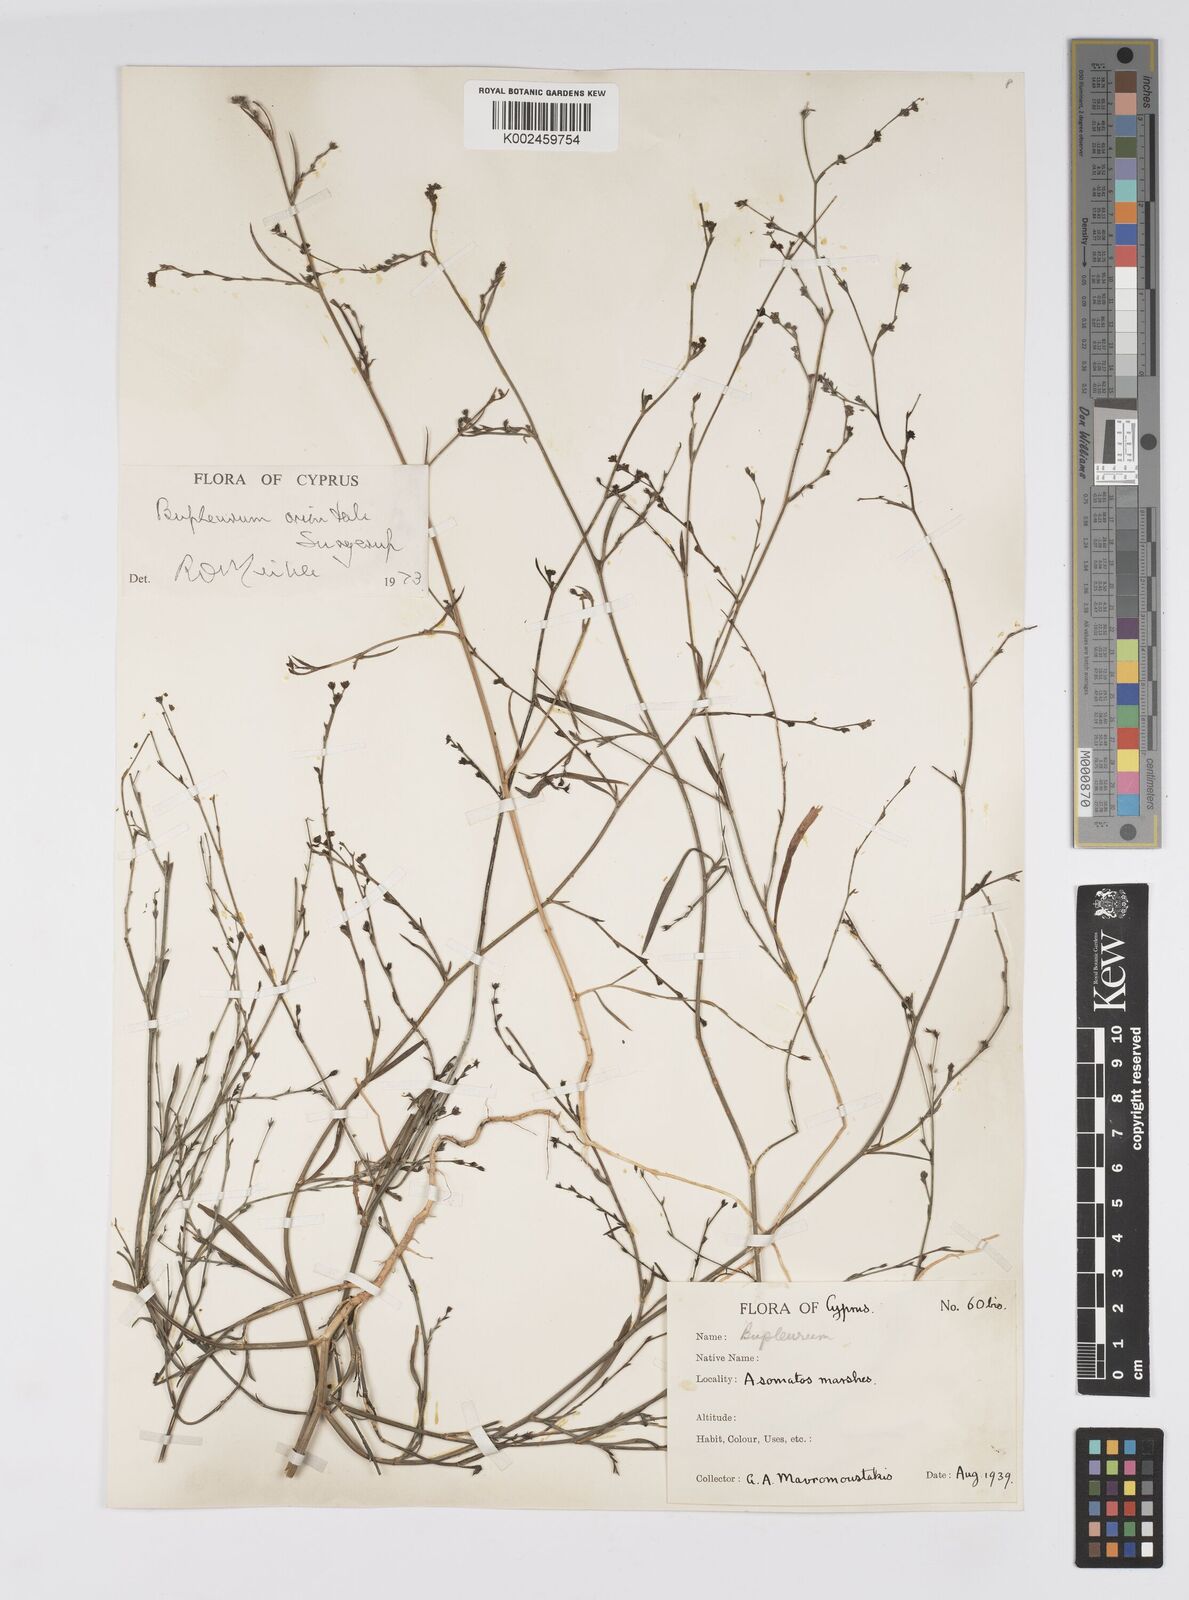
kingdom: Plantae
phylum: Tracheophyta
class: Magnoliopsida
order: Apiales
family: Apiaceae
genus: Bupleurum
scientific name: Bupleurum orientale
